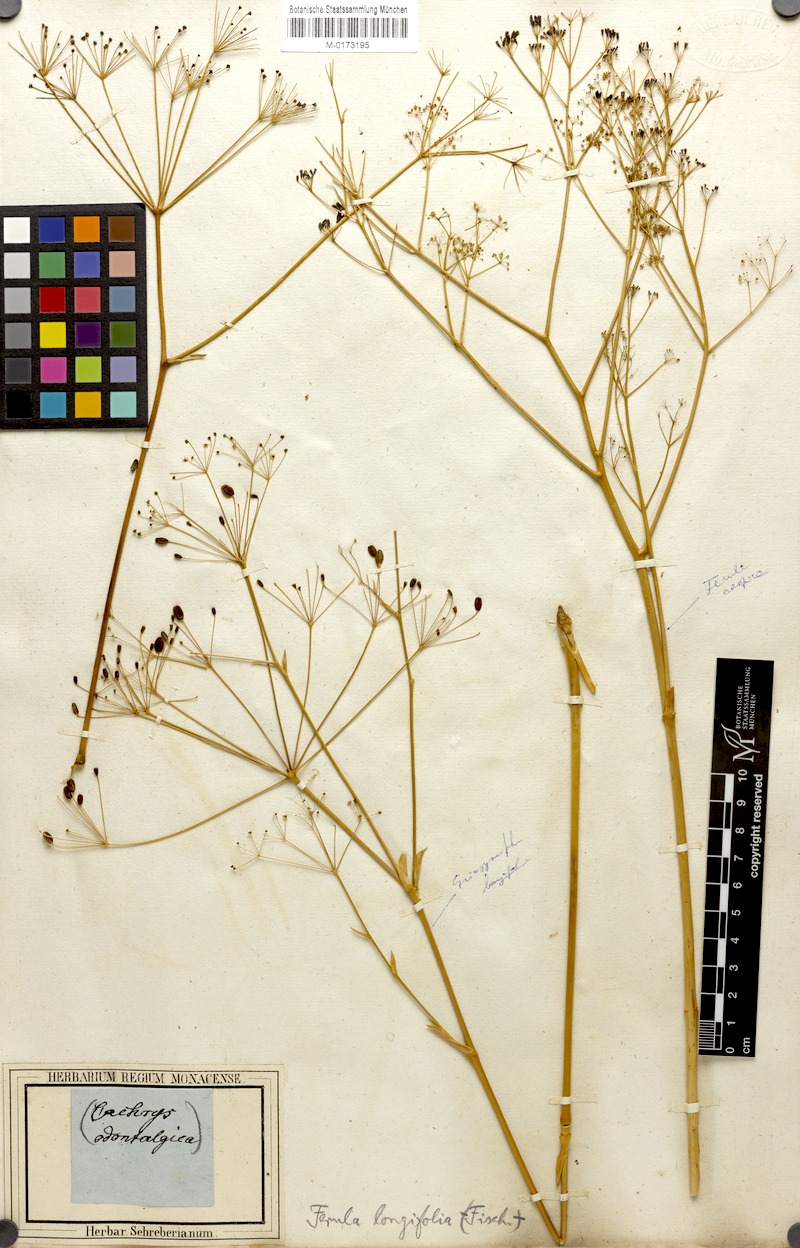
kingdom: Plantae
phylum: Tracheophyta
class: Magnoliopsida
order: Apiales
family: Apiaceae
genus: Eriosynaphe
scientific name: Eriosynaphe longifolia
